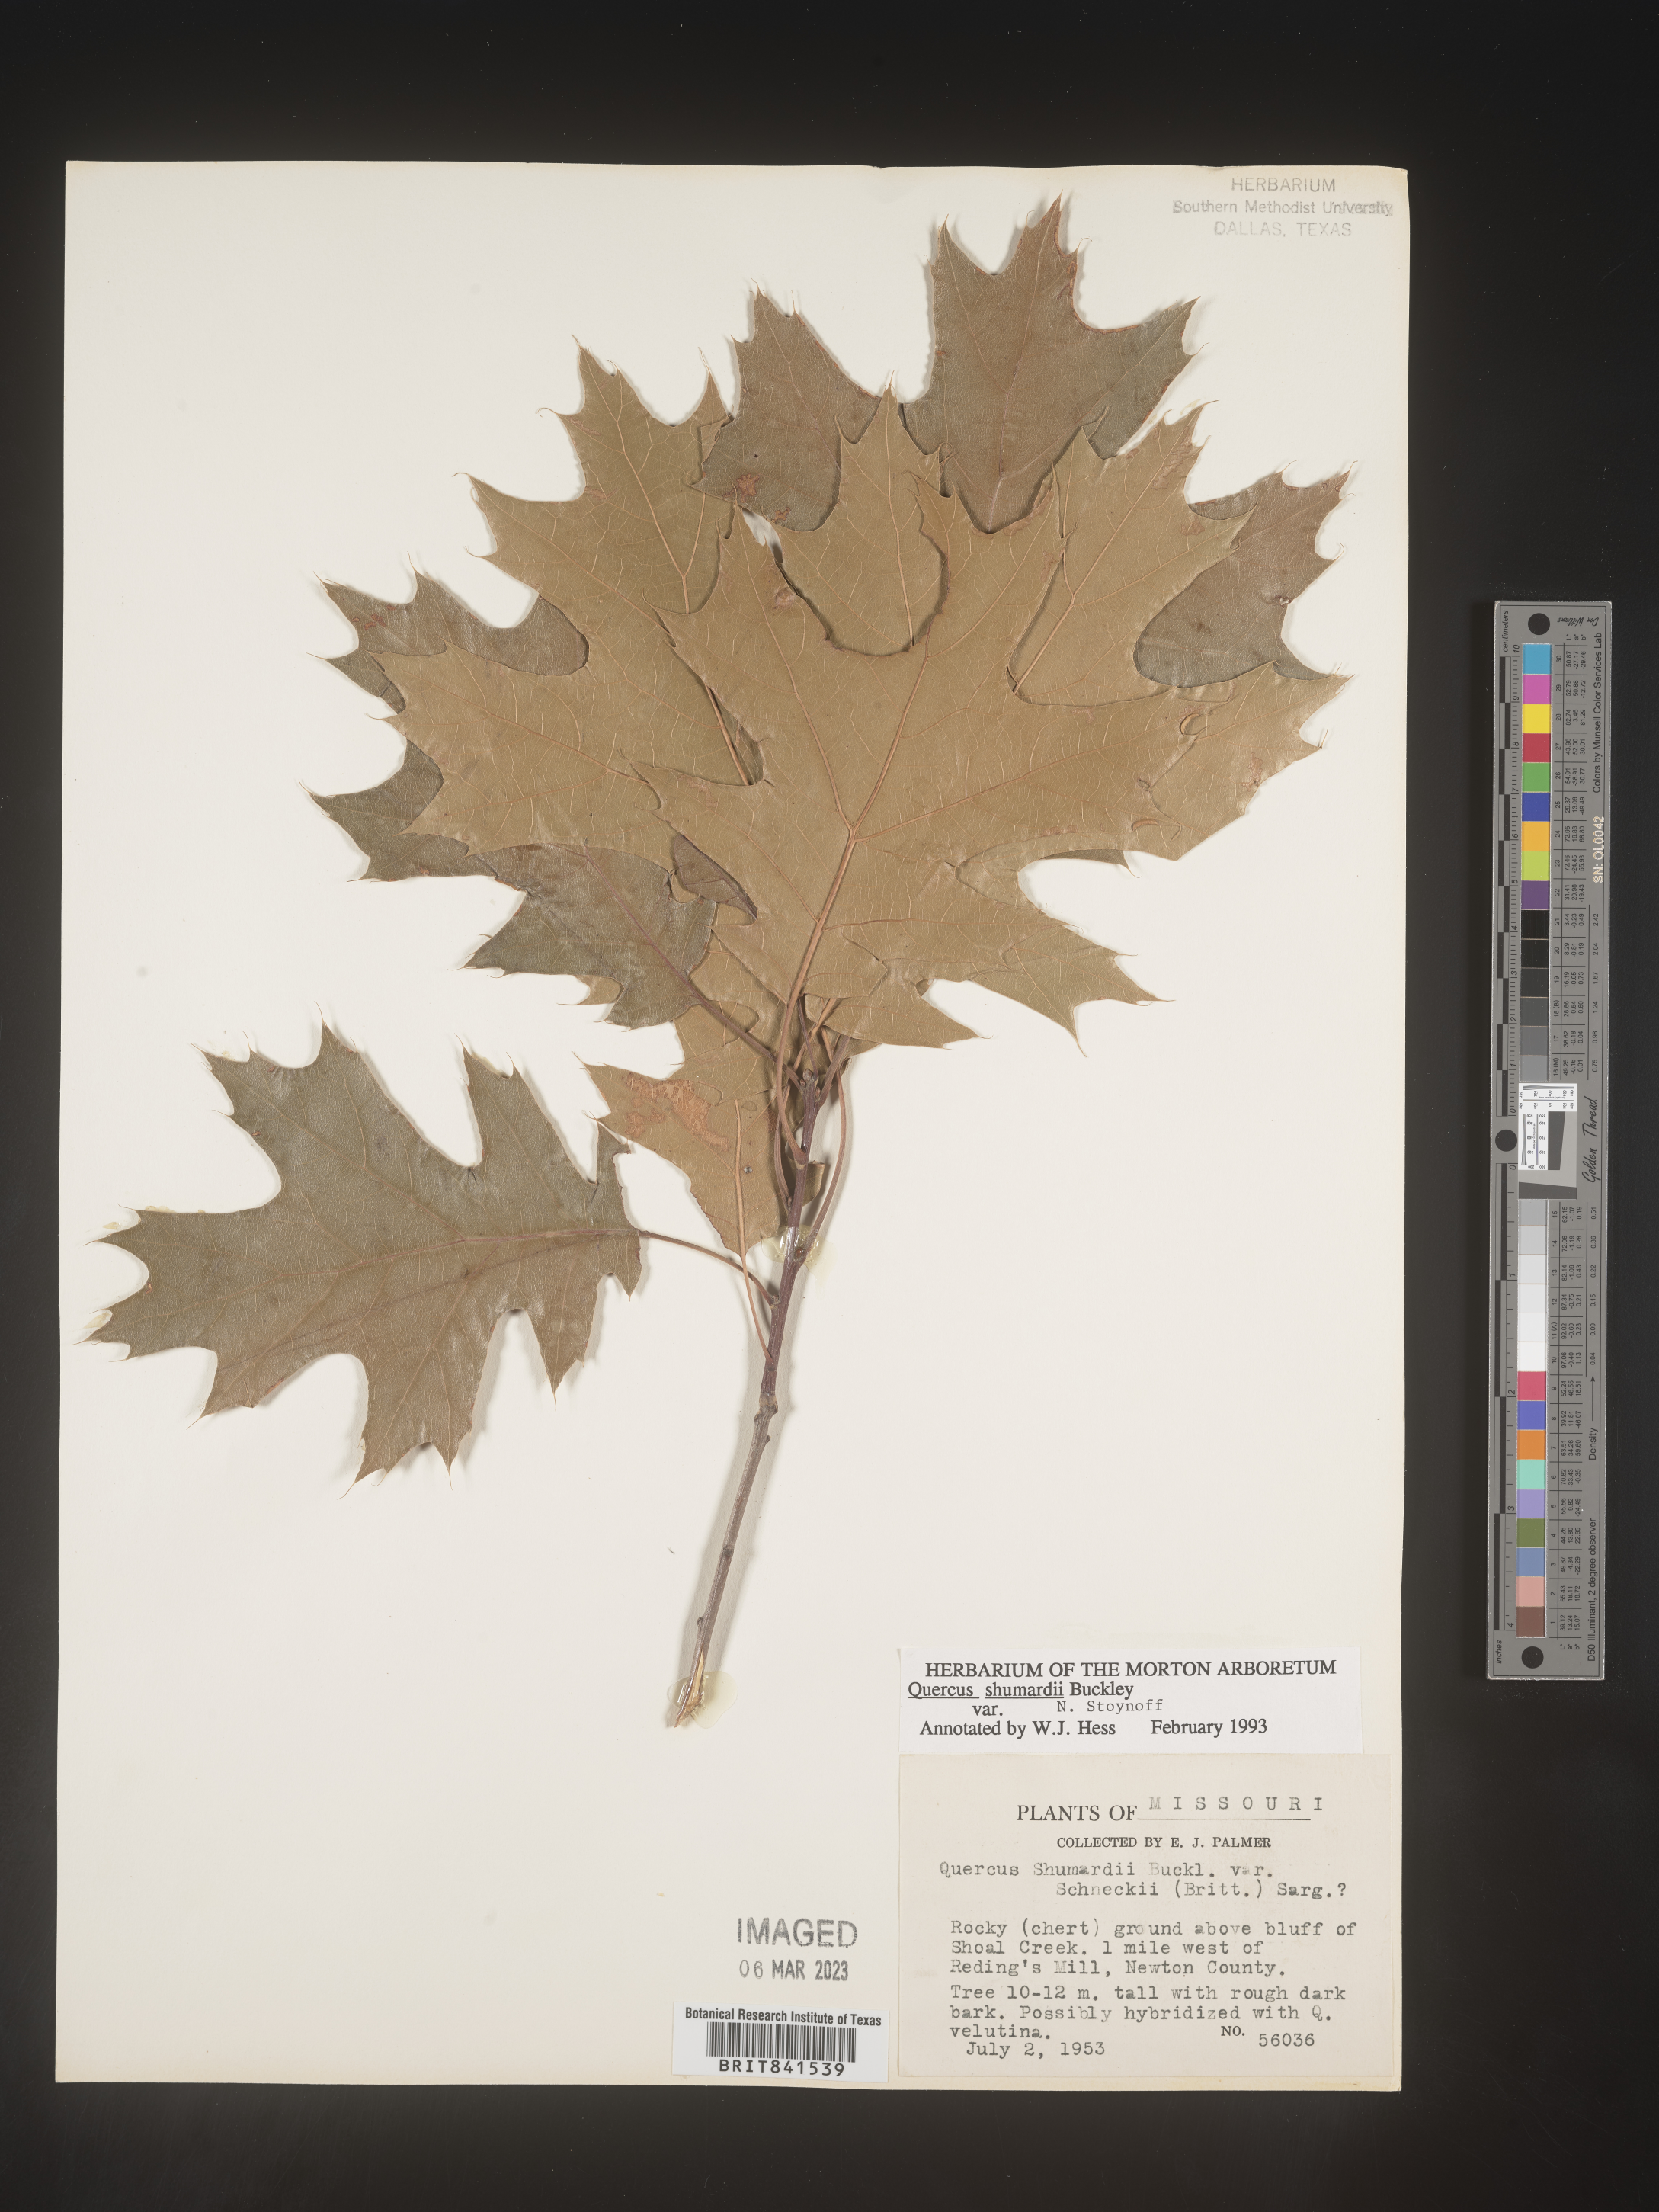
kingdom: Plantae
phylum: Tracheophyta
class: Magnoliopsida
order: Fagales
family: Fagaceae
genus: Quercus
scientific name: Quercus shumardii
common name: Shumard oak
